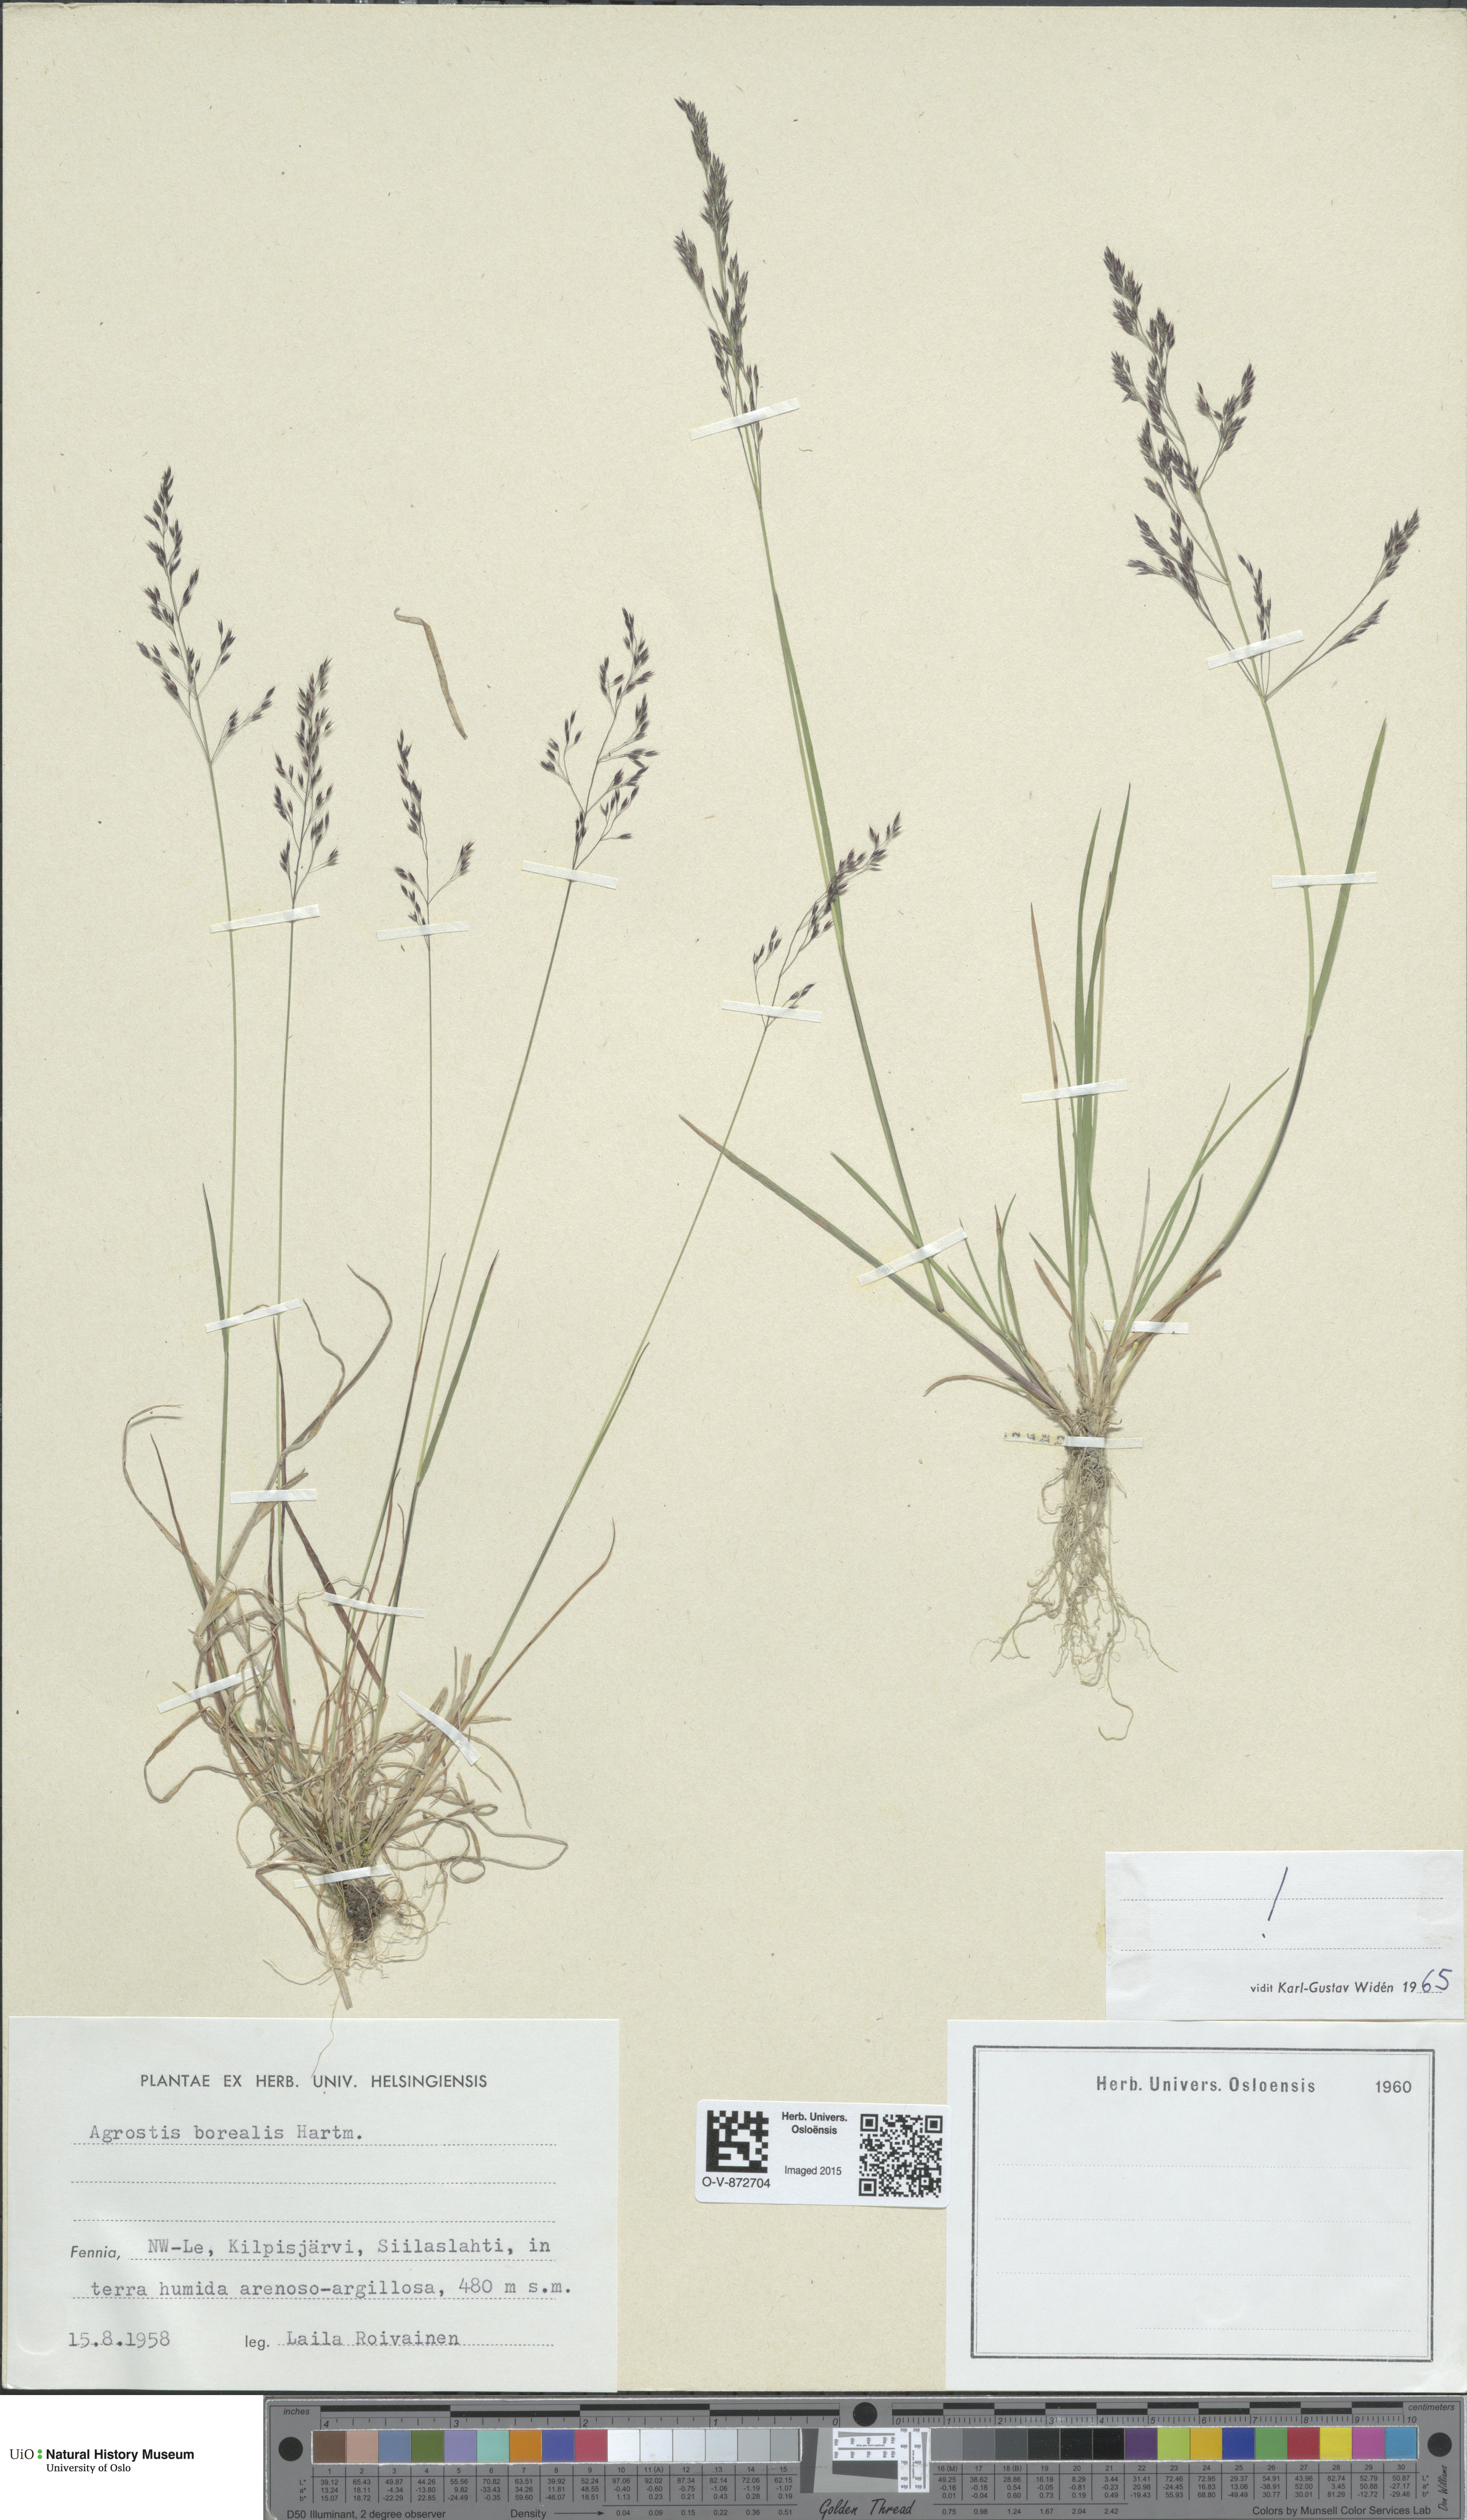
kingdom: Plantae
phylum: Tracheophyta
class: Liliopsida
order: Poales
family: Poaceae
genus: Agrostis
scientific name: Agrostis mertensii
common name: Northern bent
